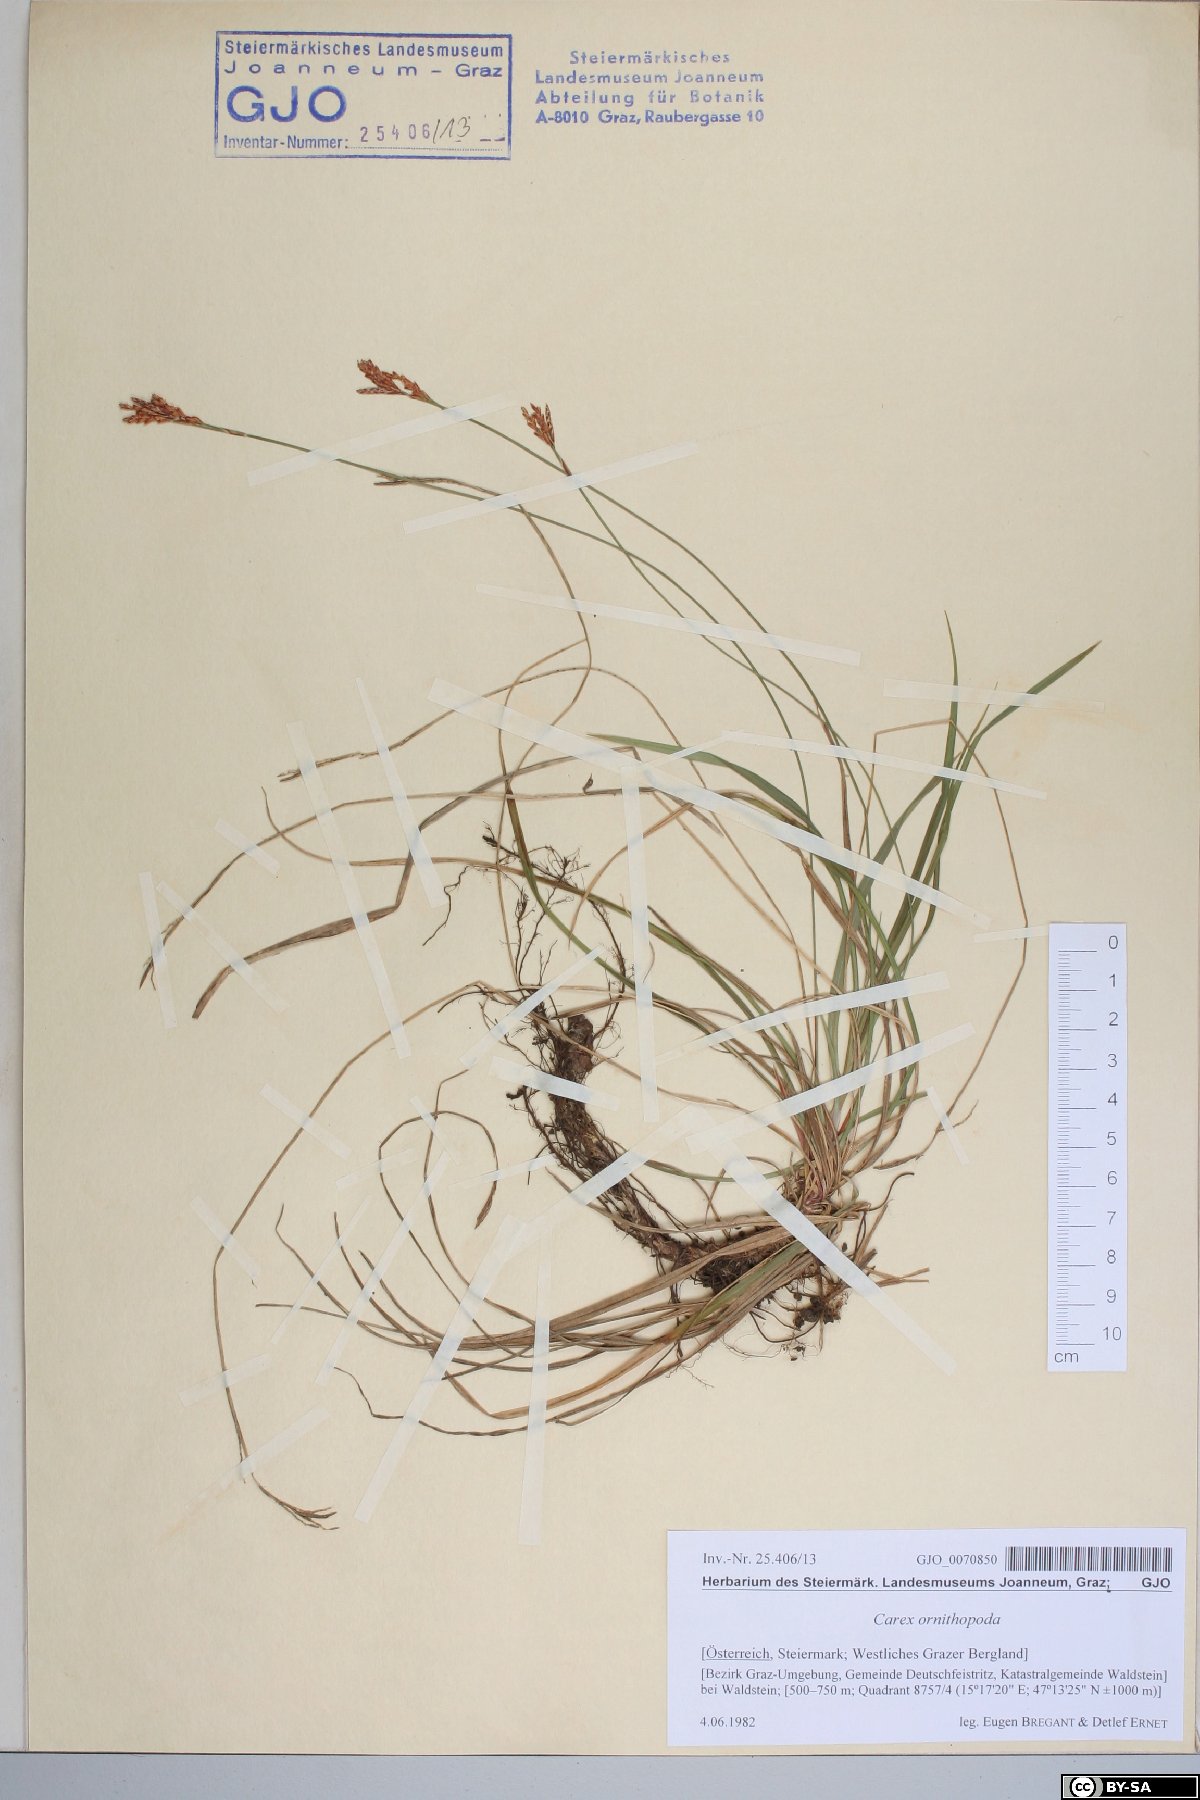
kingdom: Plantae
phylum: Tracheophyta
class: Liliopsida
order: Poales
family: Cyperaceae
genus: Carex
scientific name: Carex ornithopoda
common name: Bird's-foot sedge
